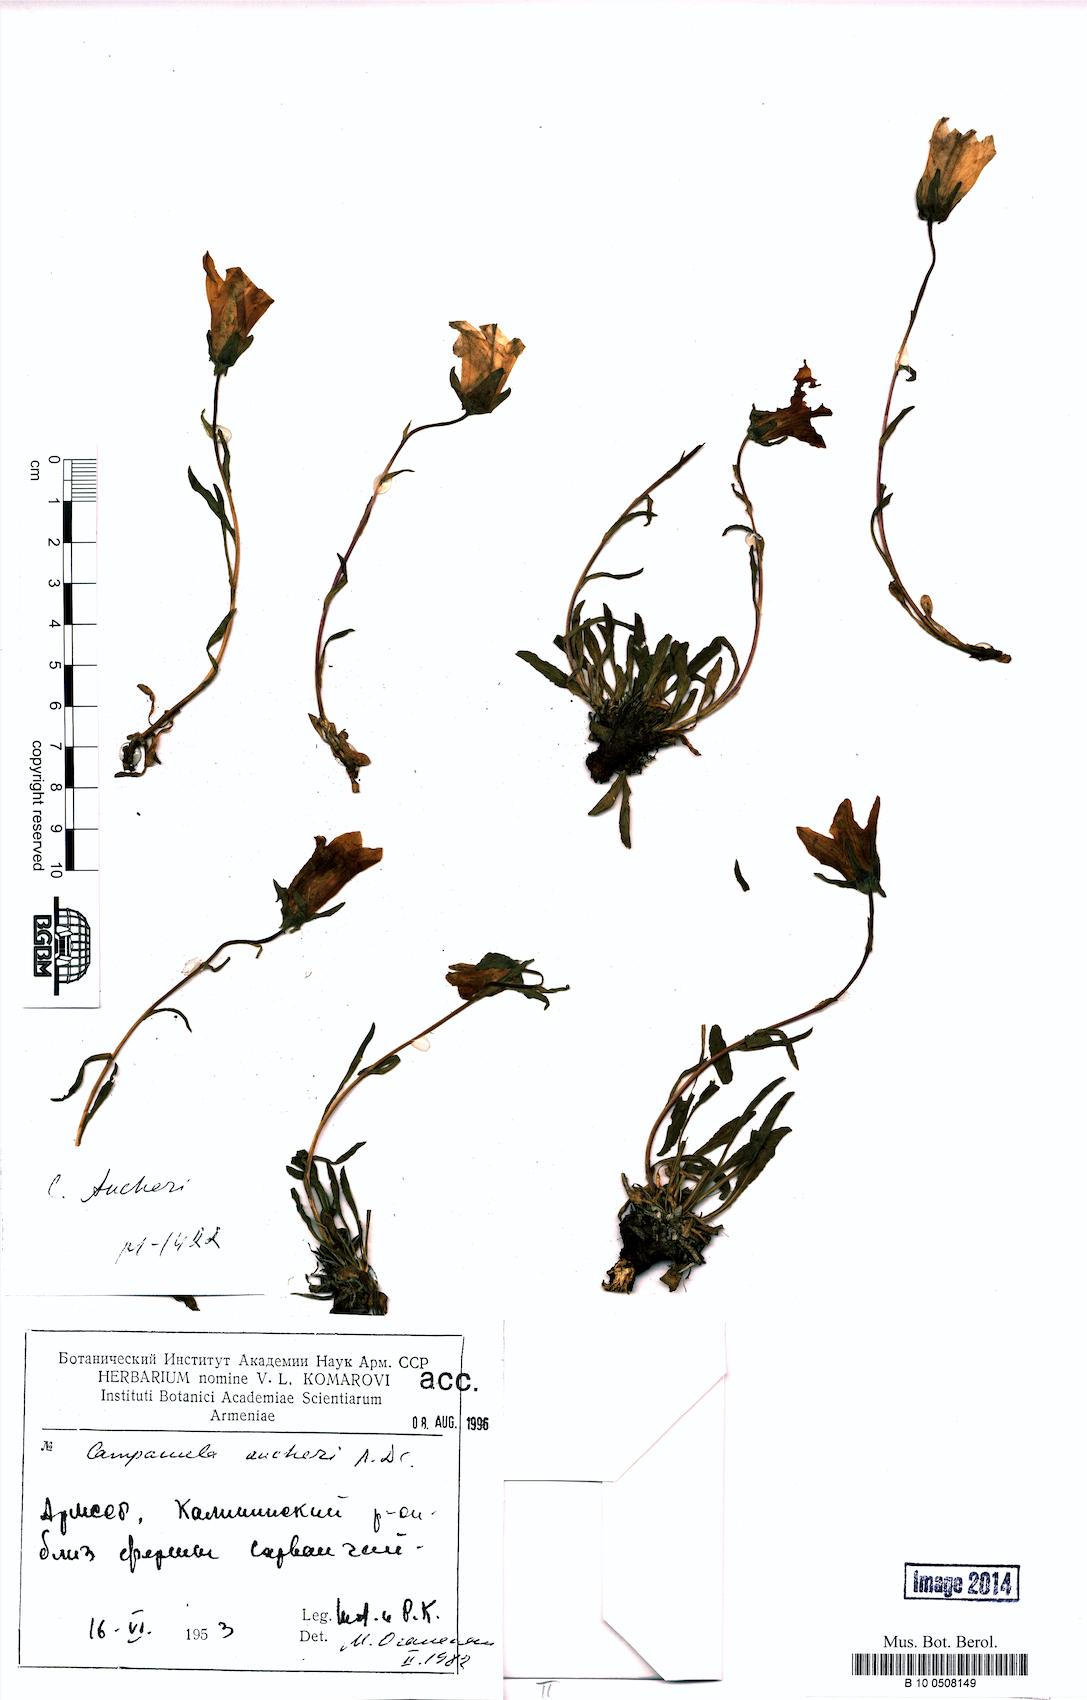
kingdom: Plantae
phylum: Tracheophyta
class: Magnoliopsida
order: Asterales
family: Campanulaceae
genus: Campanula
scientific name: Campanula saxifraga
